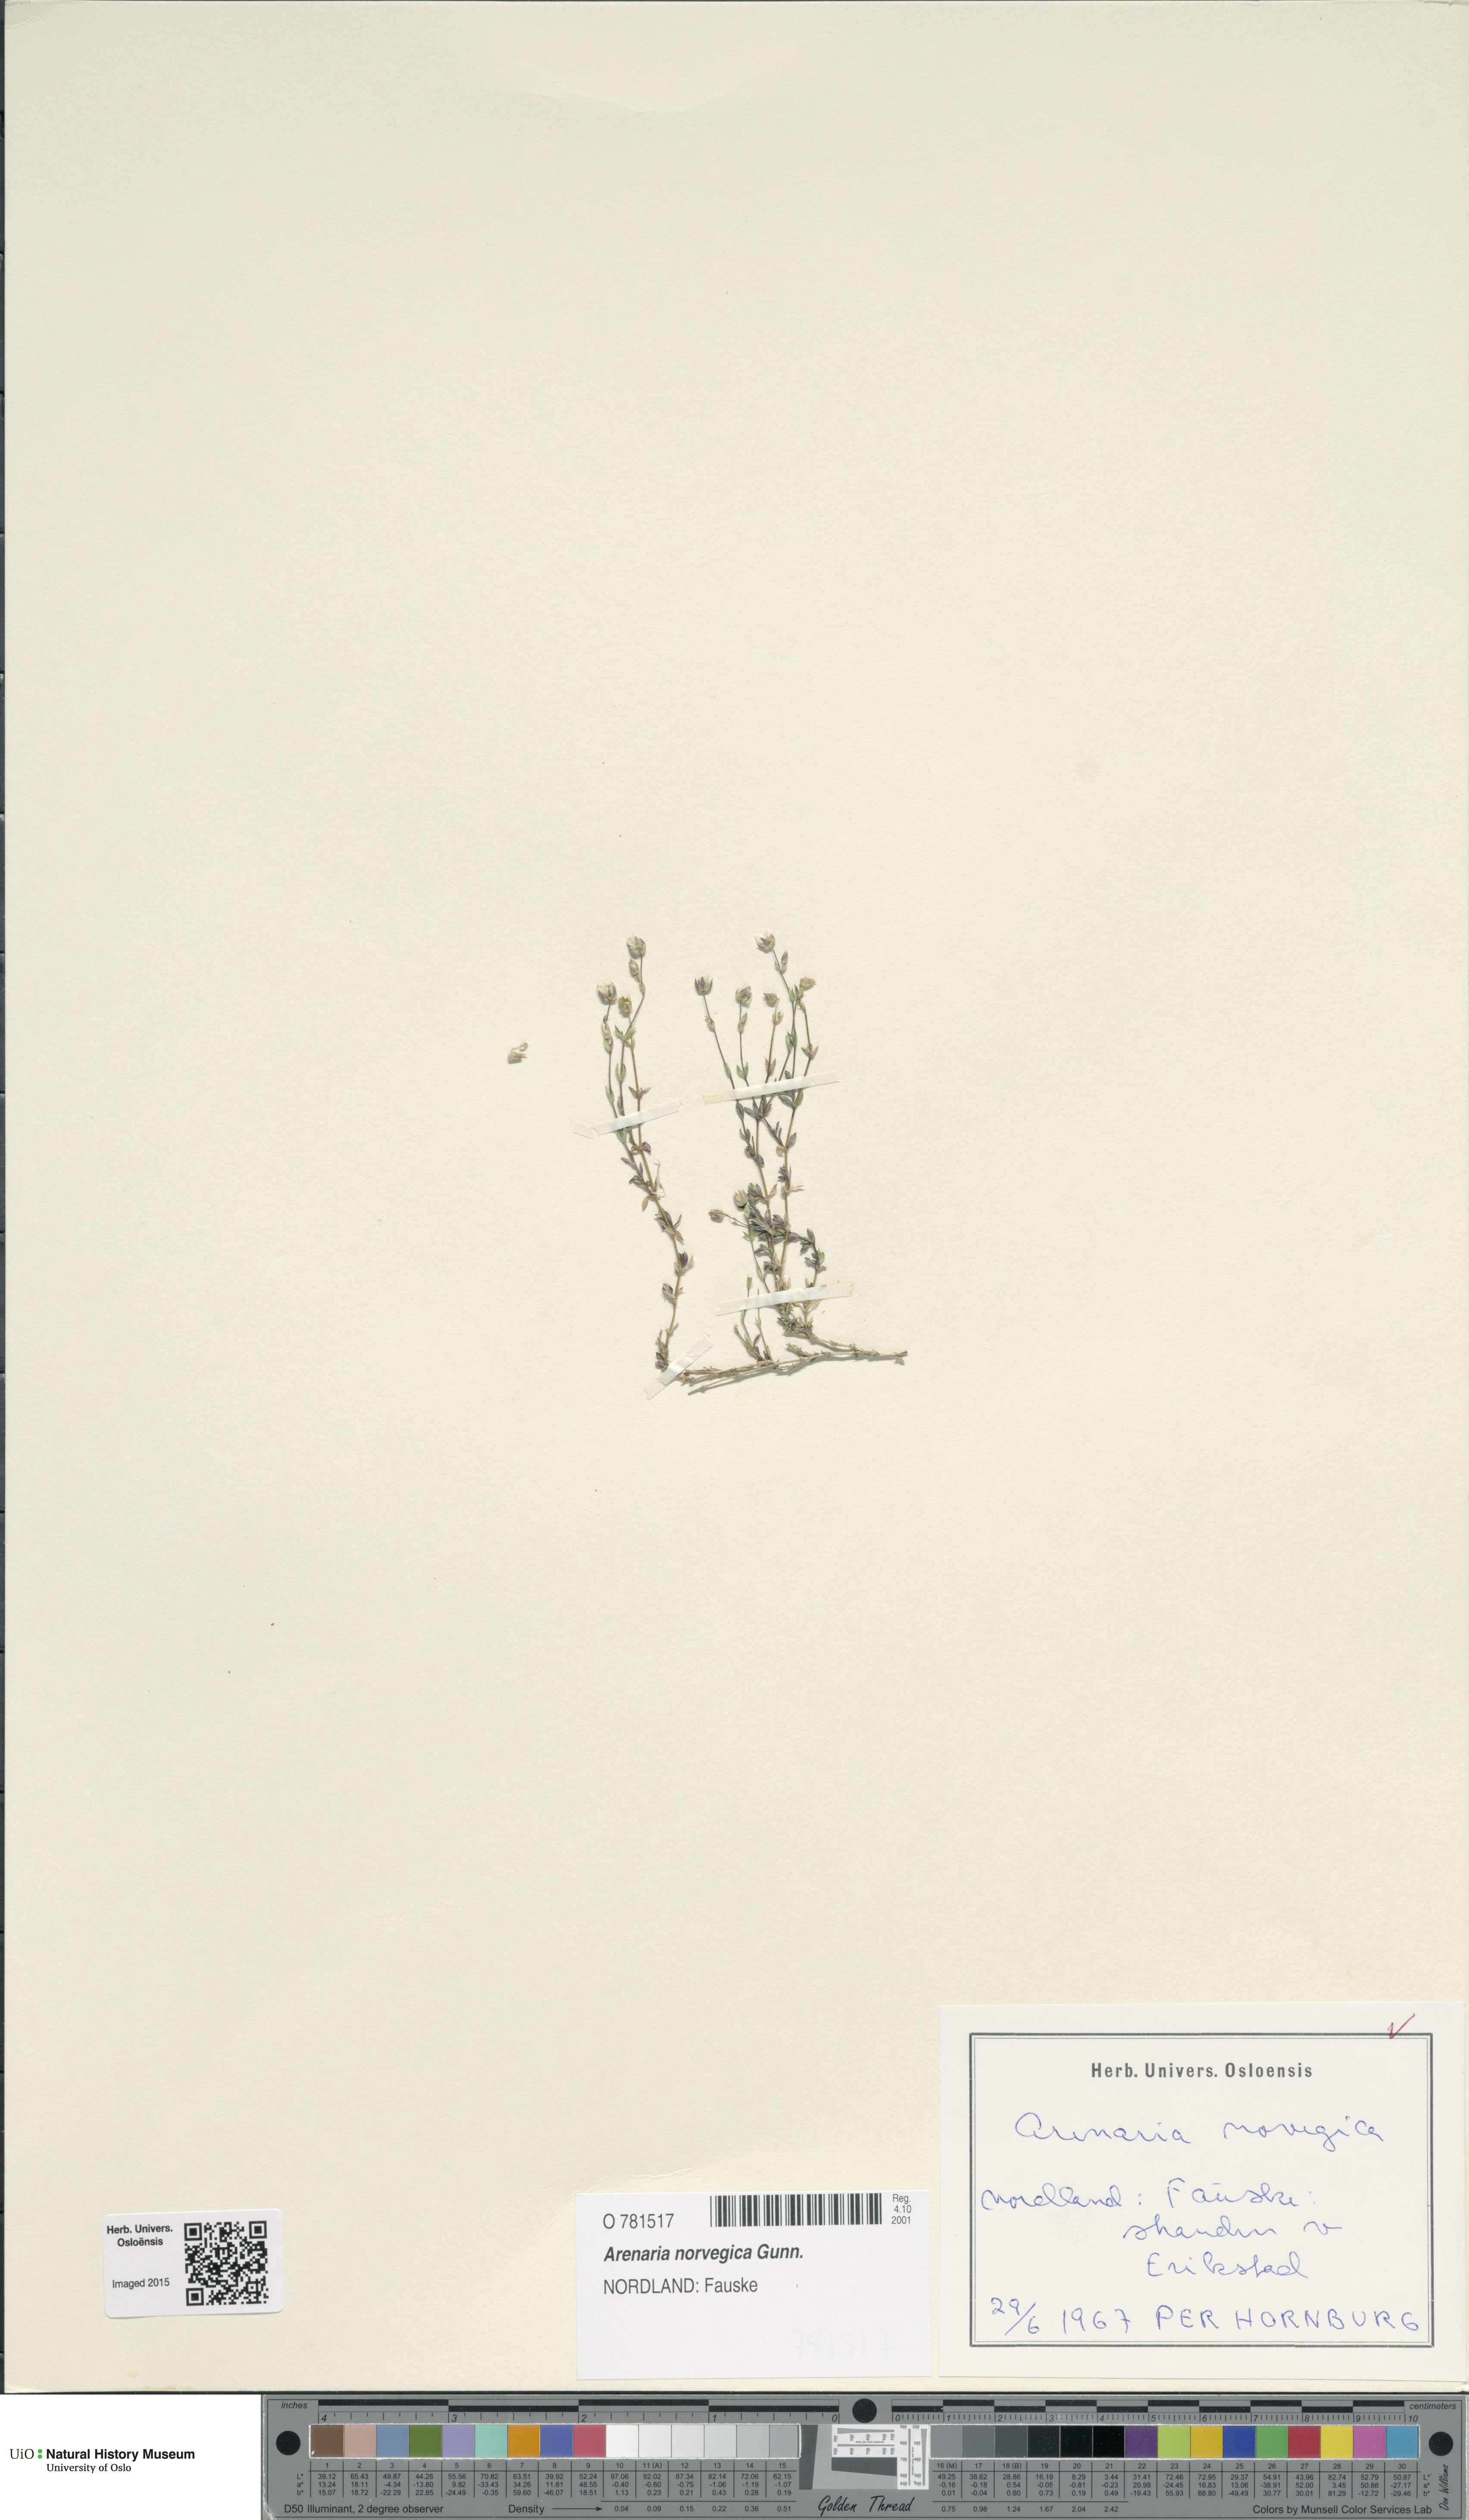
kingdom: Plantae
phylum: Tracheophyta
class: Magnoliopsida
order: Caryophyllales
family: Caryophyllaceae
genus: Arenaria
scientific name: Arenaria norvegica
